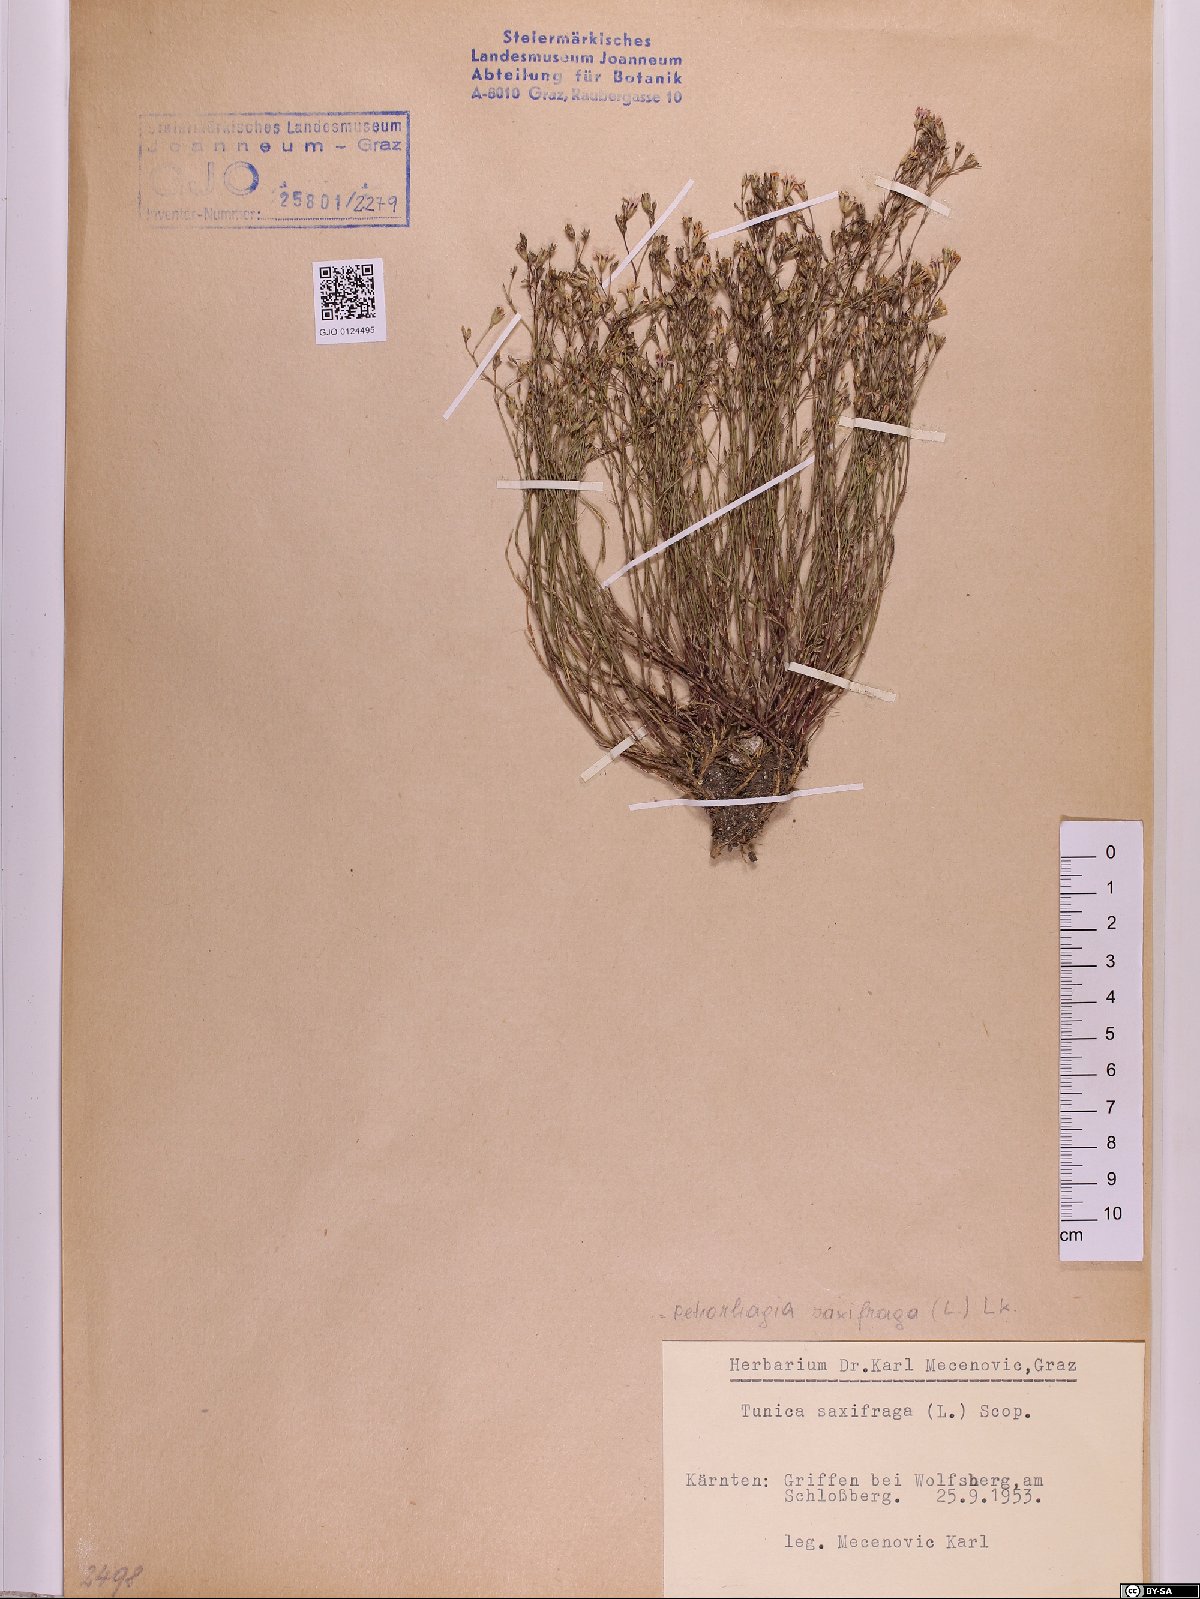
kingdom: Plantae
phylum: Tracheophyta
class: Magnoliopsida
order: Caryophyllales
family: Caryophyllaceae
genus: Petrorhagia
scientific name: Petrorhagia saxifraga
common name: Tunicflower
